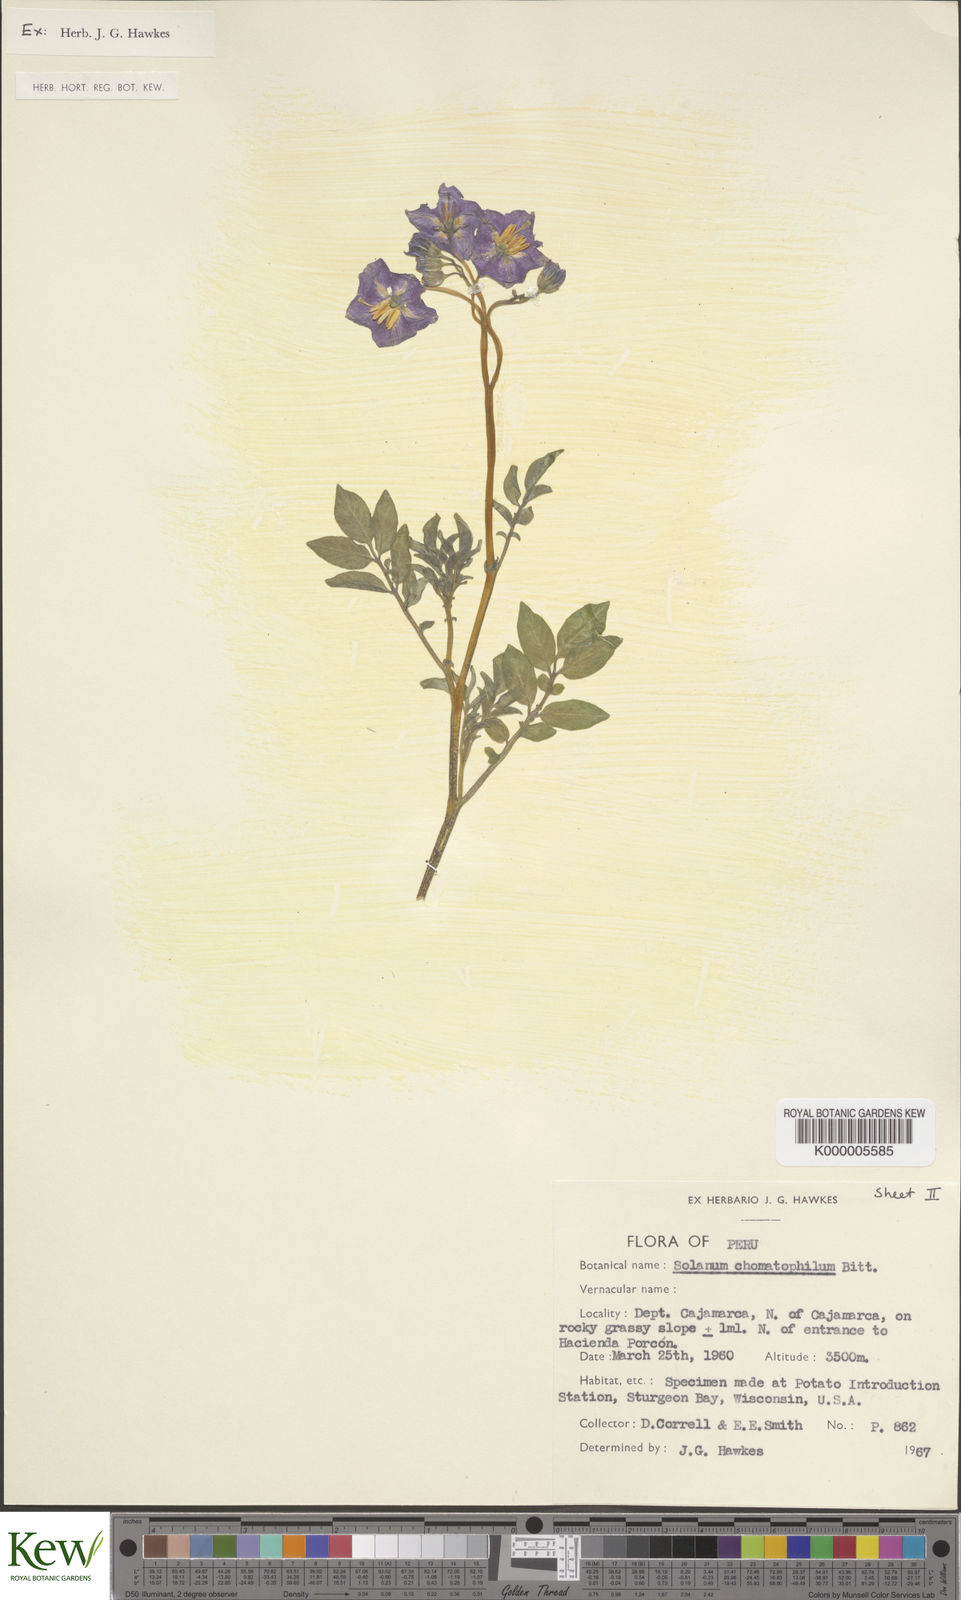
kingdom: Plantae
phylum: Tracheophyta
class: Magnoliopsida
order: Solanales
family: Solanaceae
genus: Solanum
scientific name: Solanum chomatophilum
